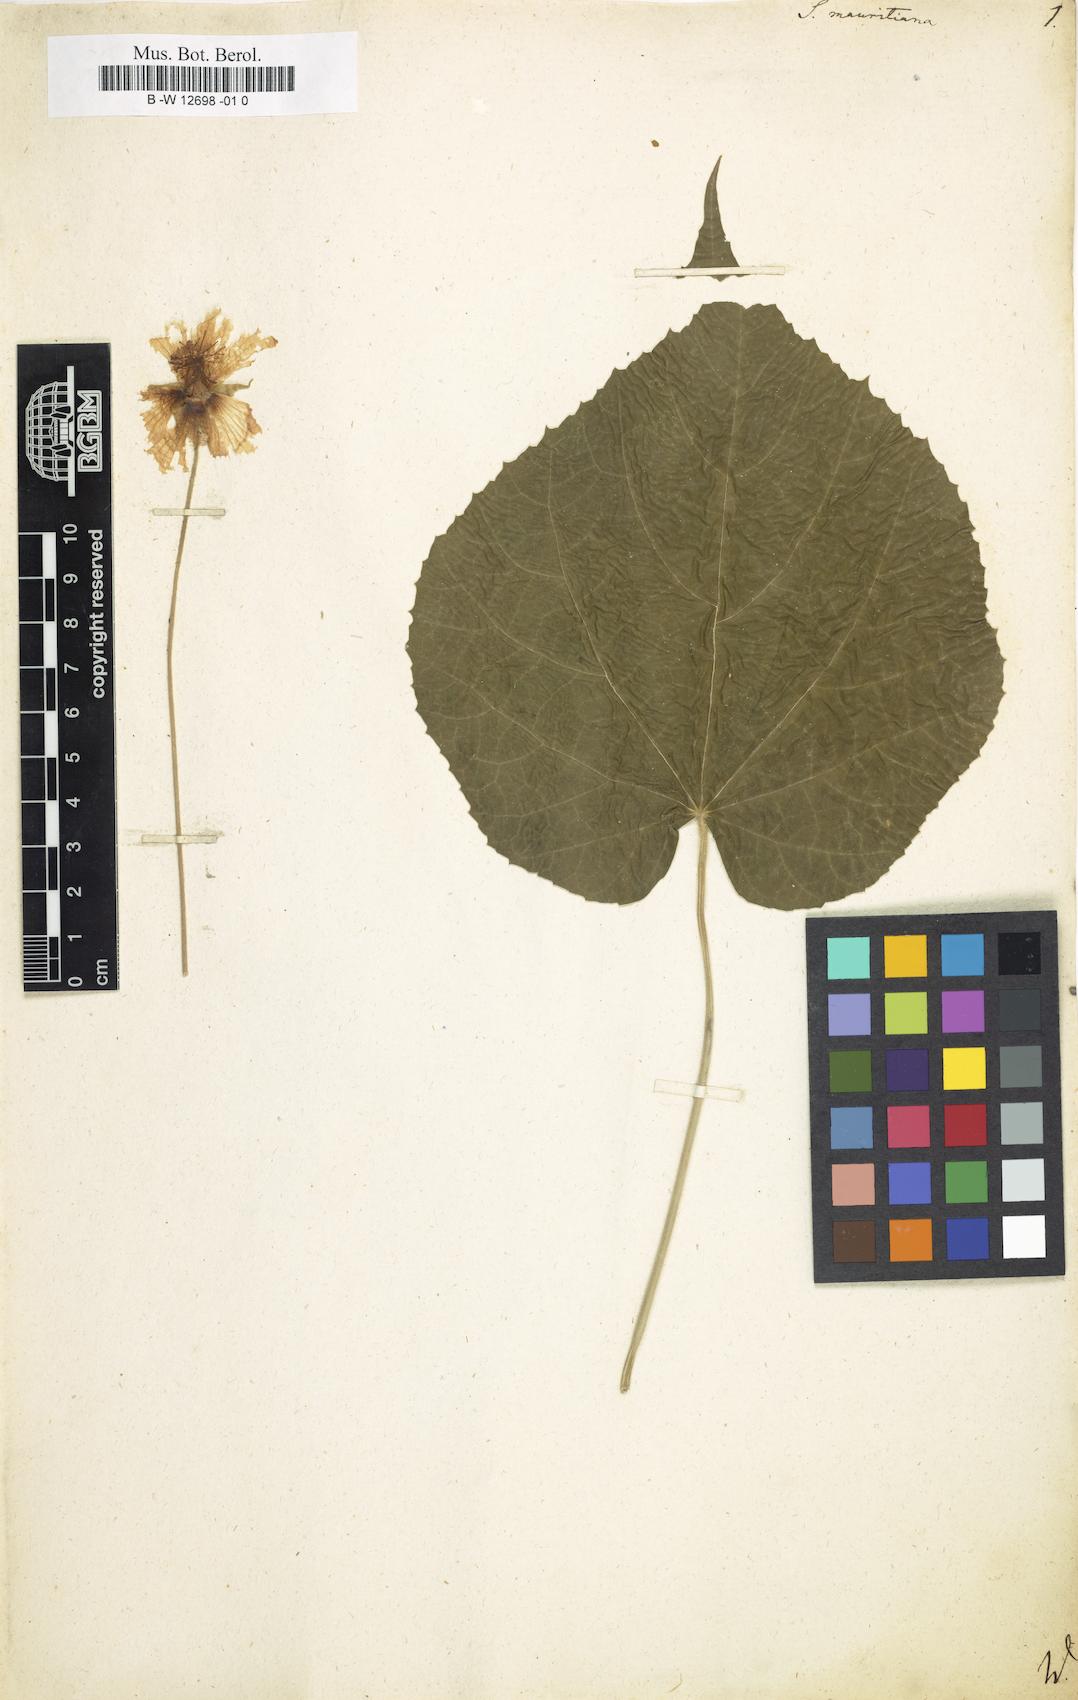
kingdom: Plantae
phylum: Tracheophyta
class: Magnoliopsida
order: Malvales
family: Malvaceae
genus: Abutilon
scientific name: Abutilon mauritianum
